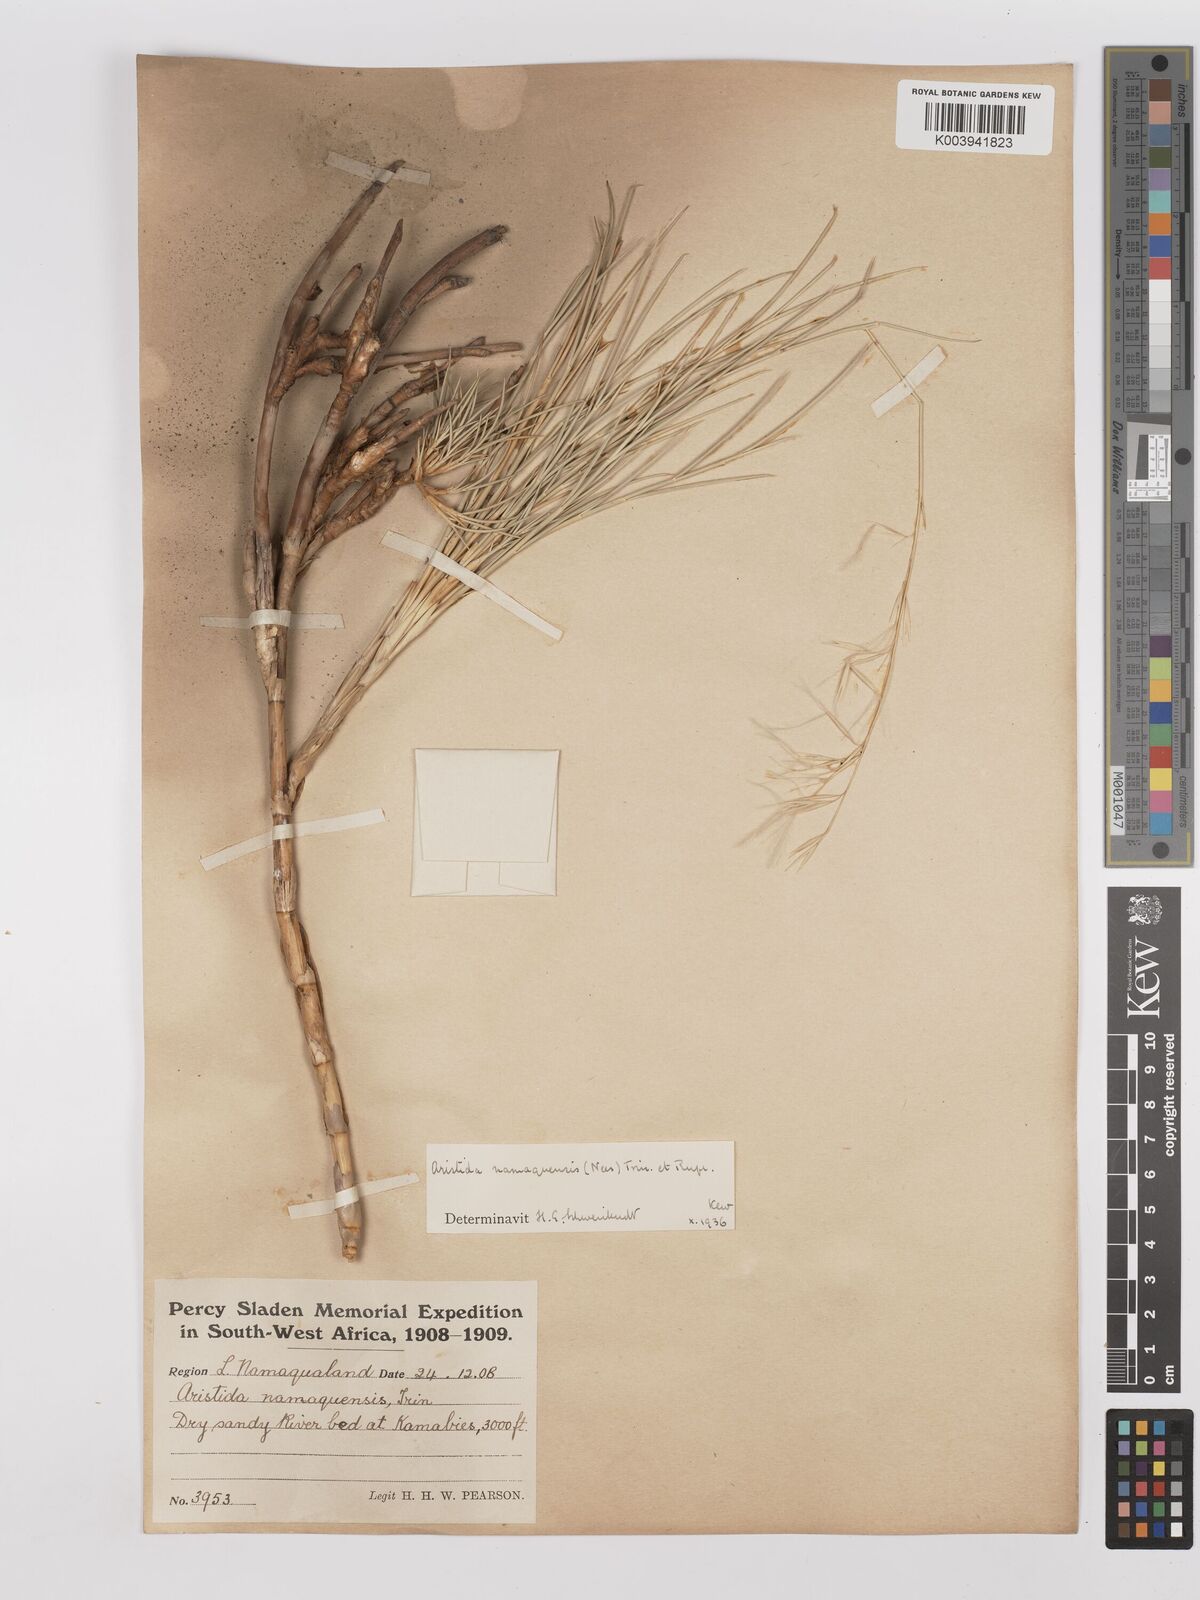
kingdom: Plantae
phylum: Tracheophyta
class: Liliopsida
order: Poales
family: Poaceae
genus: Stipagrostis
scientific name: Stipagrostis namaquensis
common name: River bushman grass
